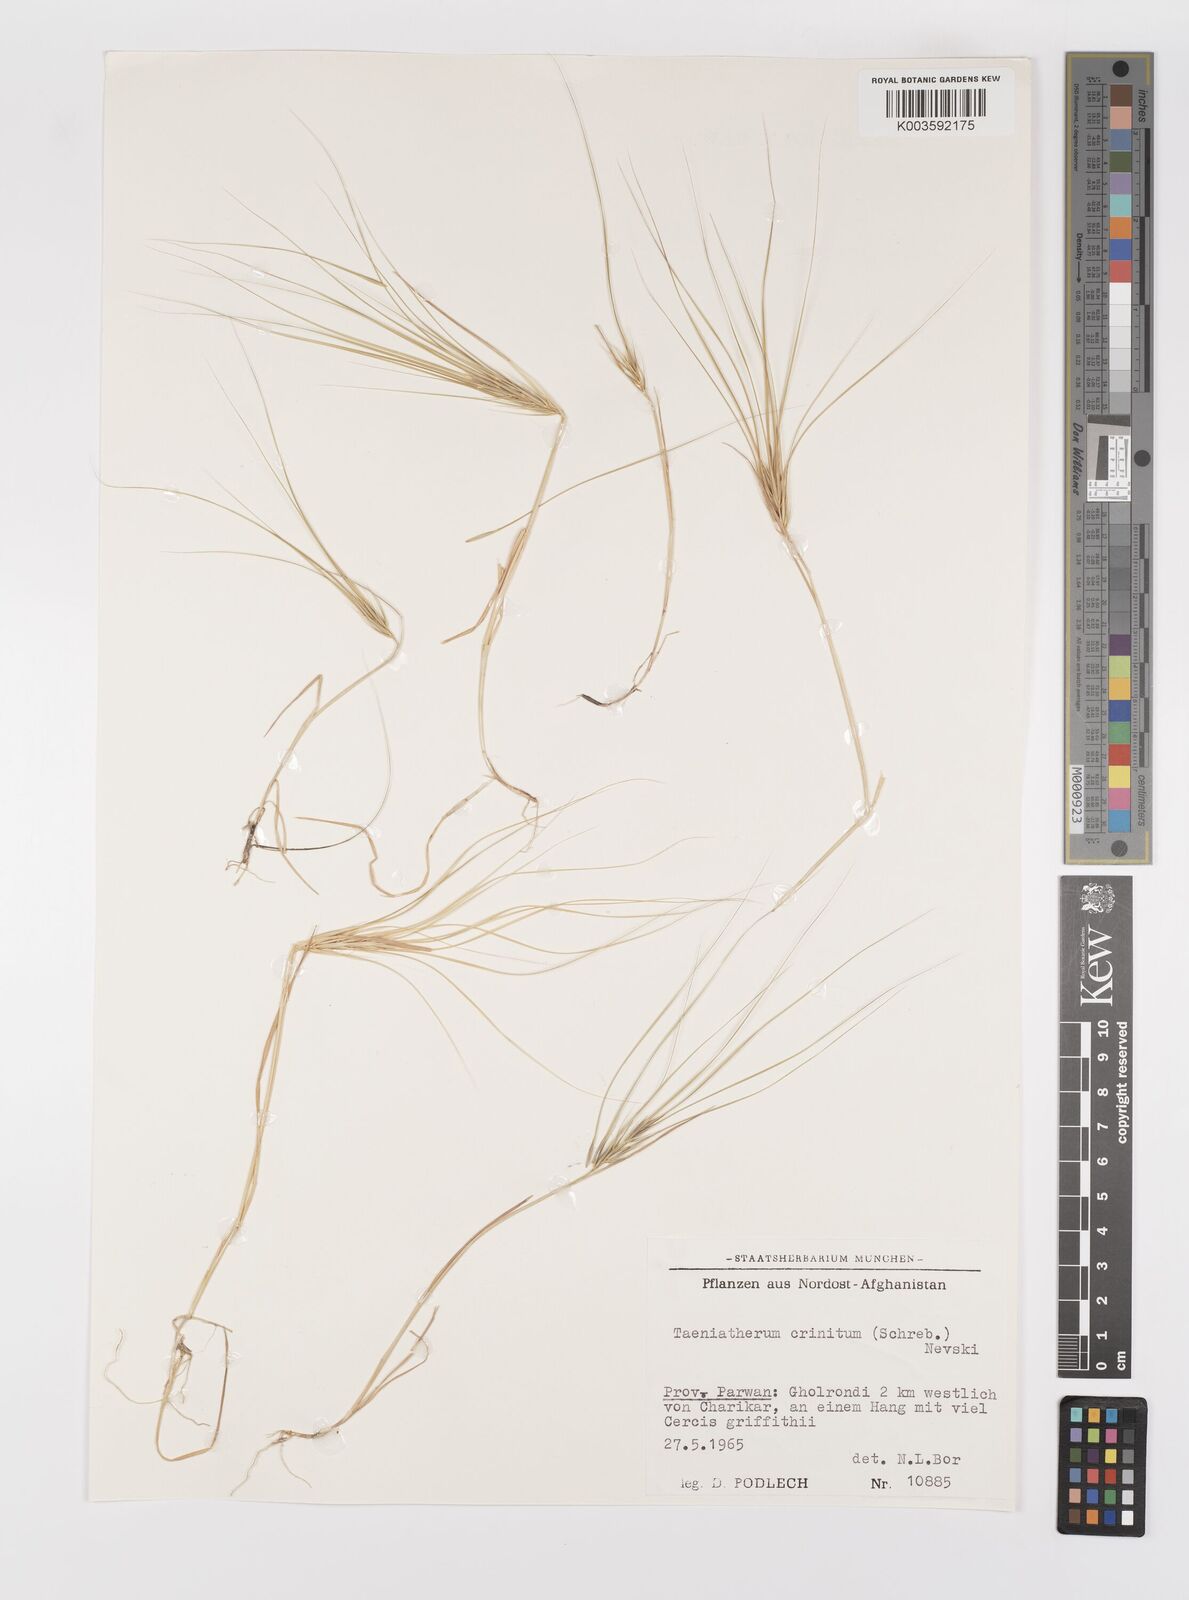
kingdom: Plantae
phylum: Tracheophyta
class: Liliopsida
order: Poales
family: Poaceae
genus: Taeniatherum
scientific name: Taeniatherum caput-medusae
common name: Medusahead
